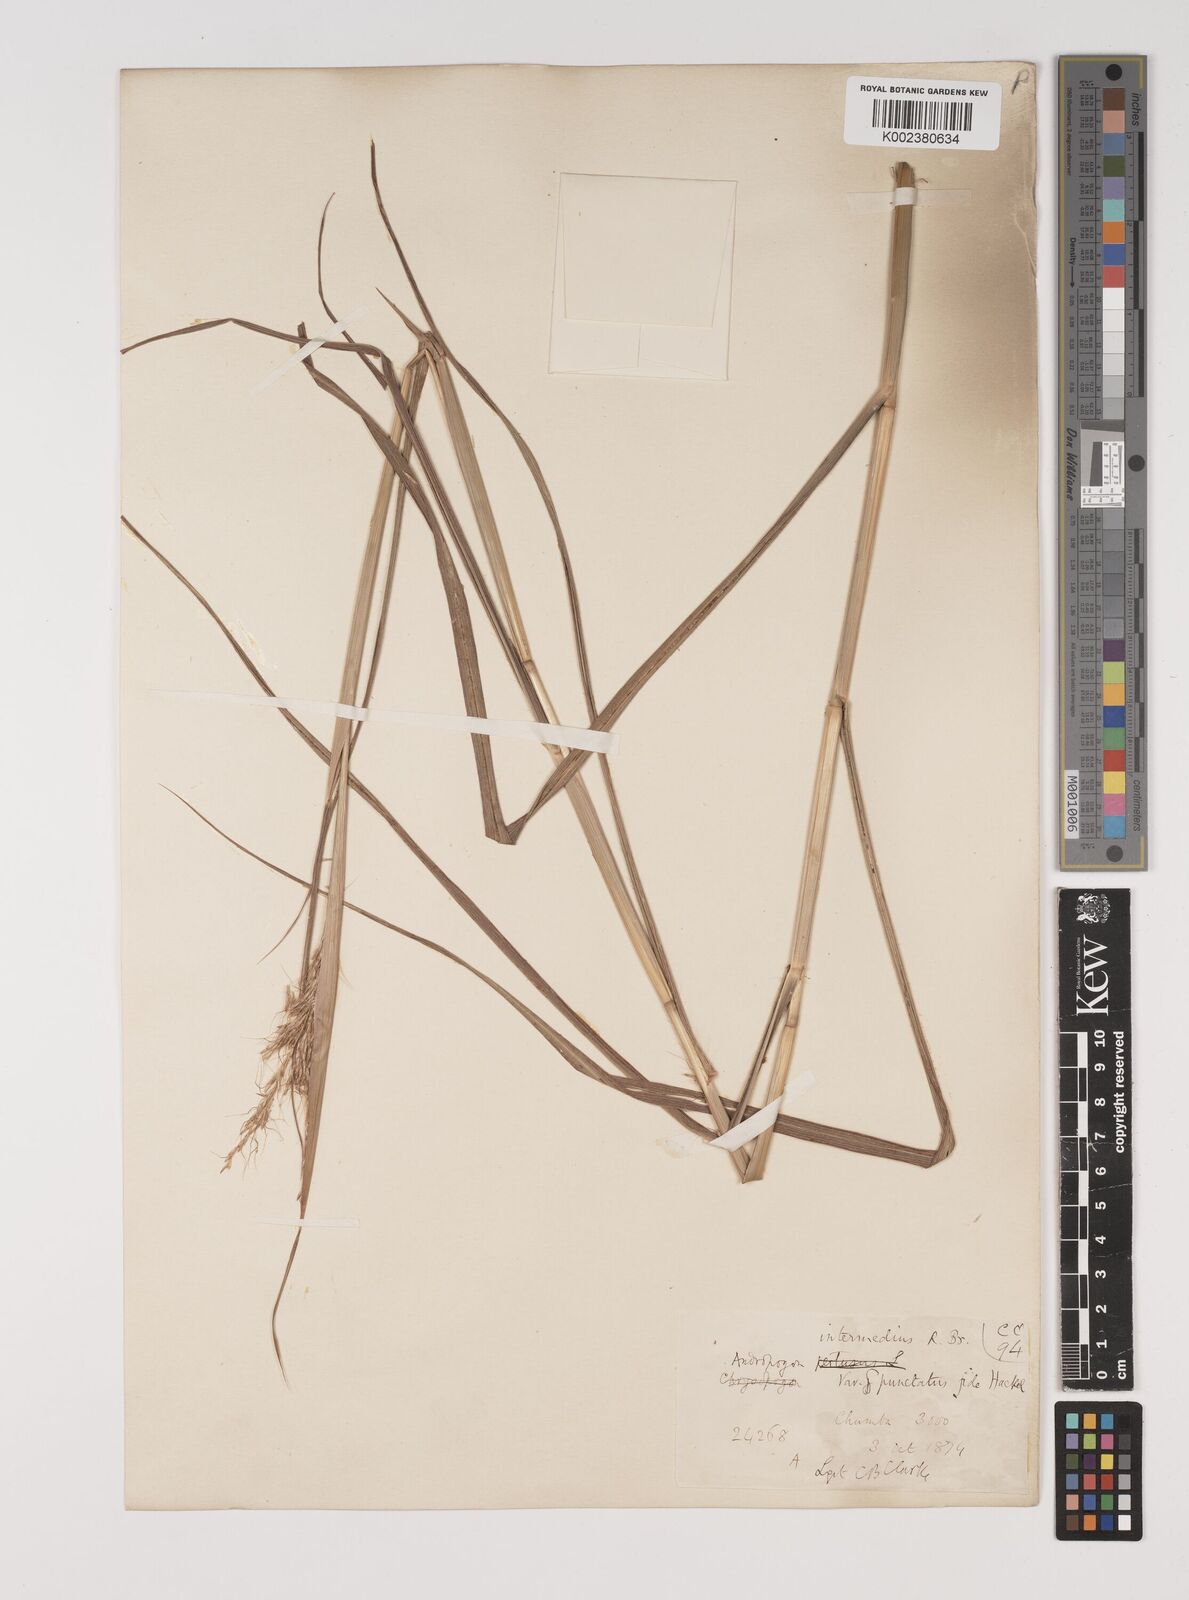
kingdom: Plantae
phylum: Tracheophyta
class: Liliopsida
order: Poales
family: Poaceae
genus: Bothriochloa
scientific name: Bothriochloa bladhii
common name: Caucasian bluestem
